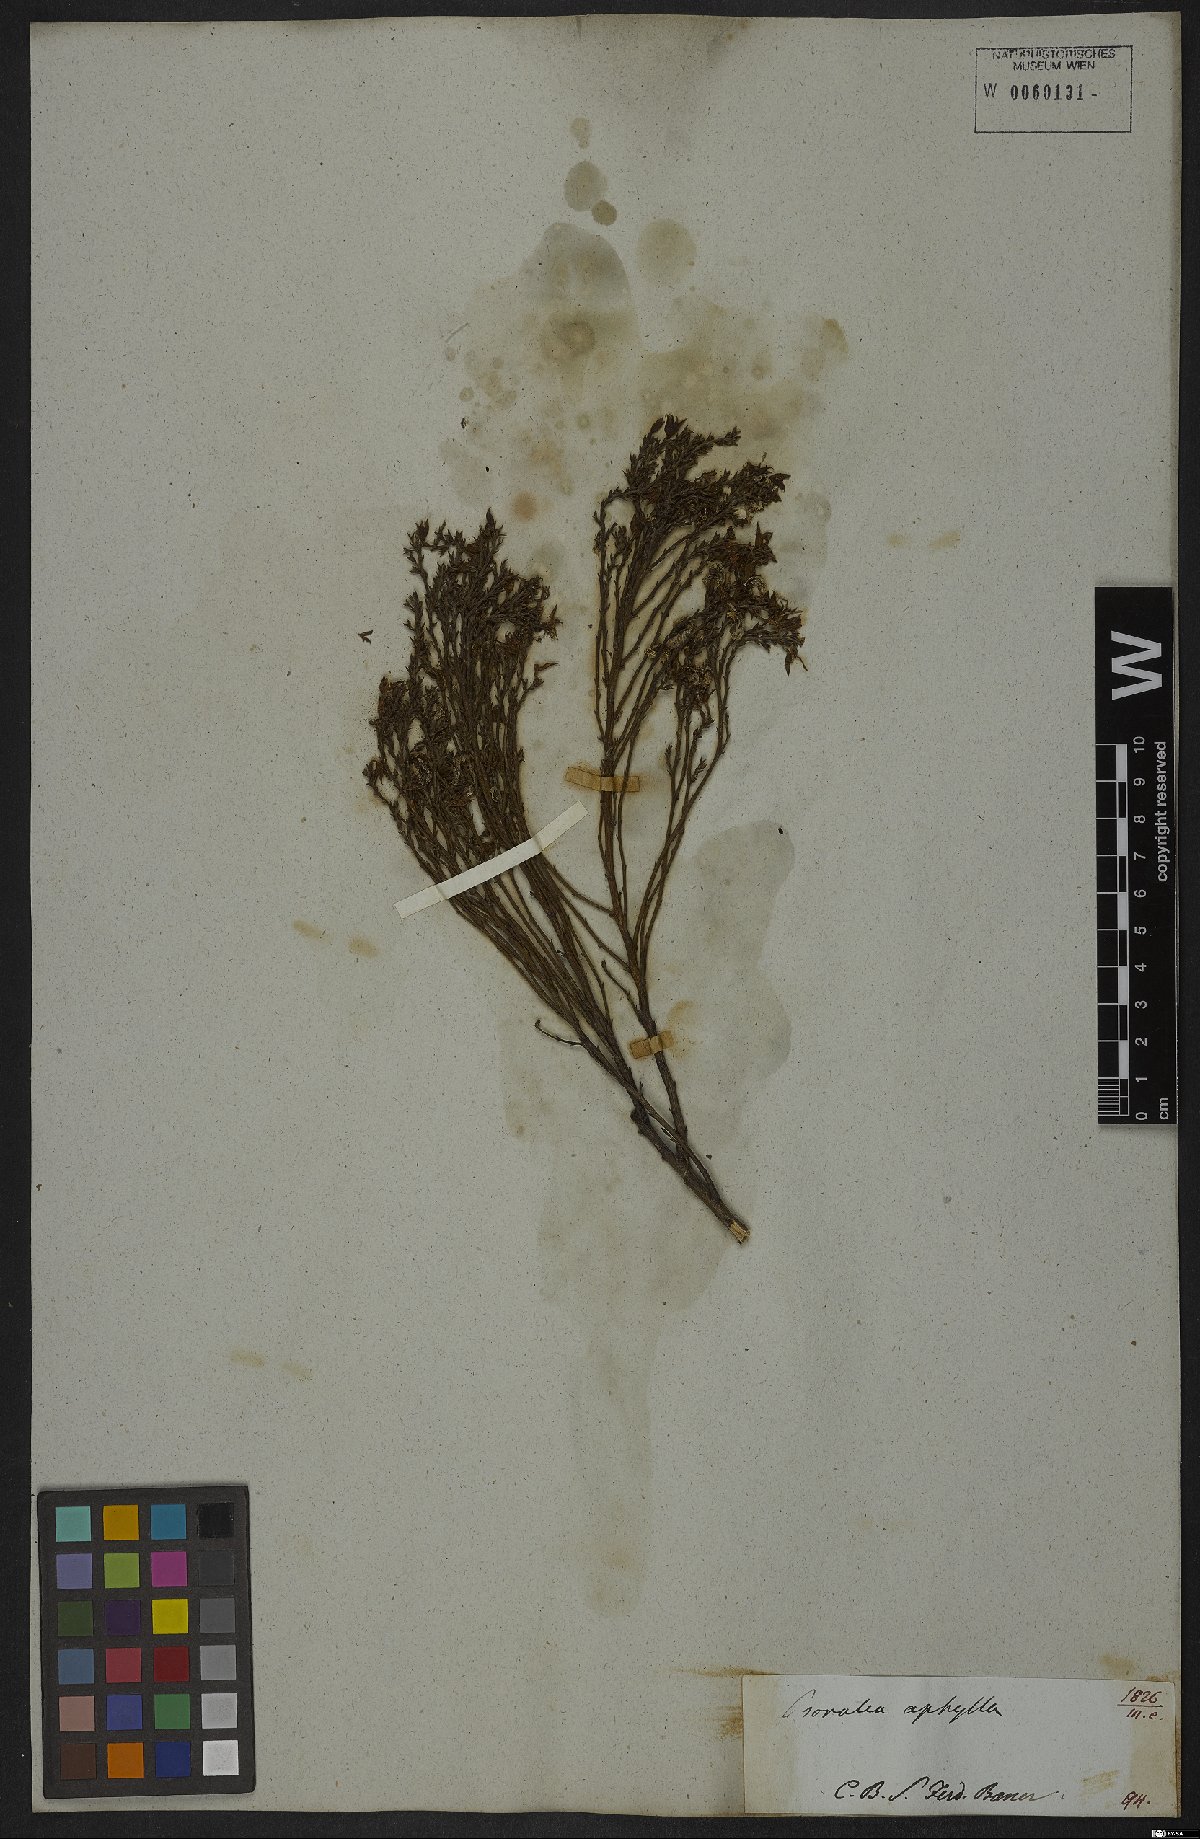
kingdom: Plantae
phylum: Tracheophyta
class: Magnoliopsida
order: Fabales
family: Fabaceae
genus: Psoralea
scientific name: Psoralea aphylla
